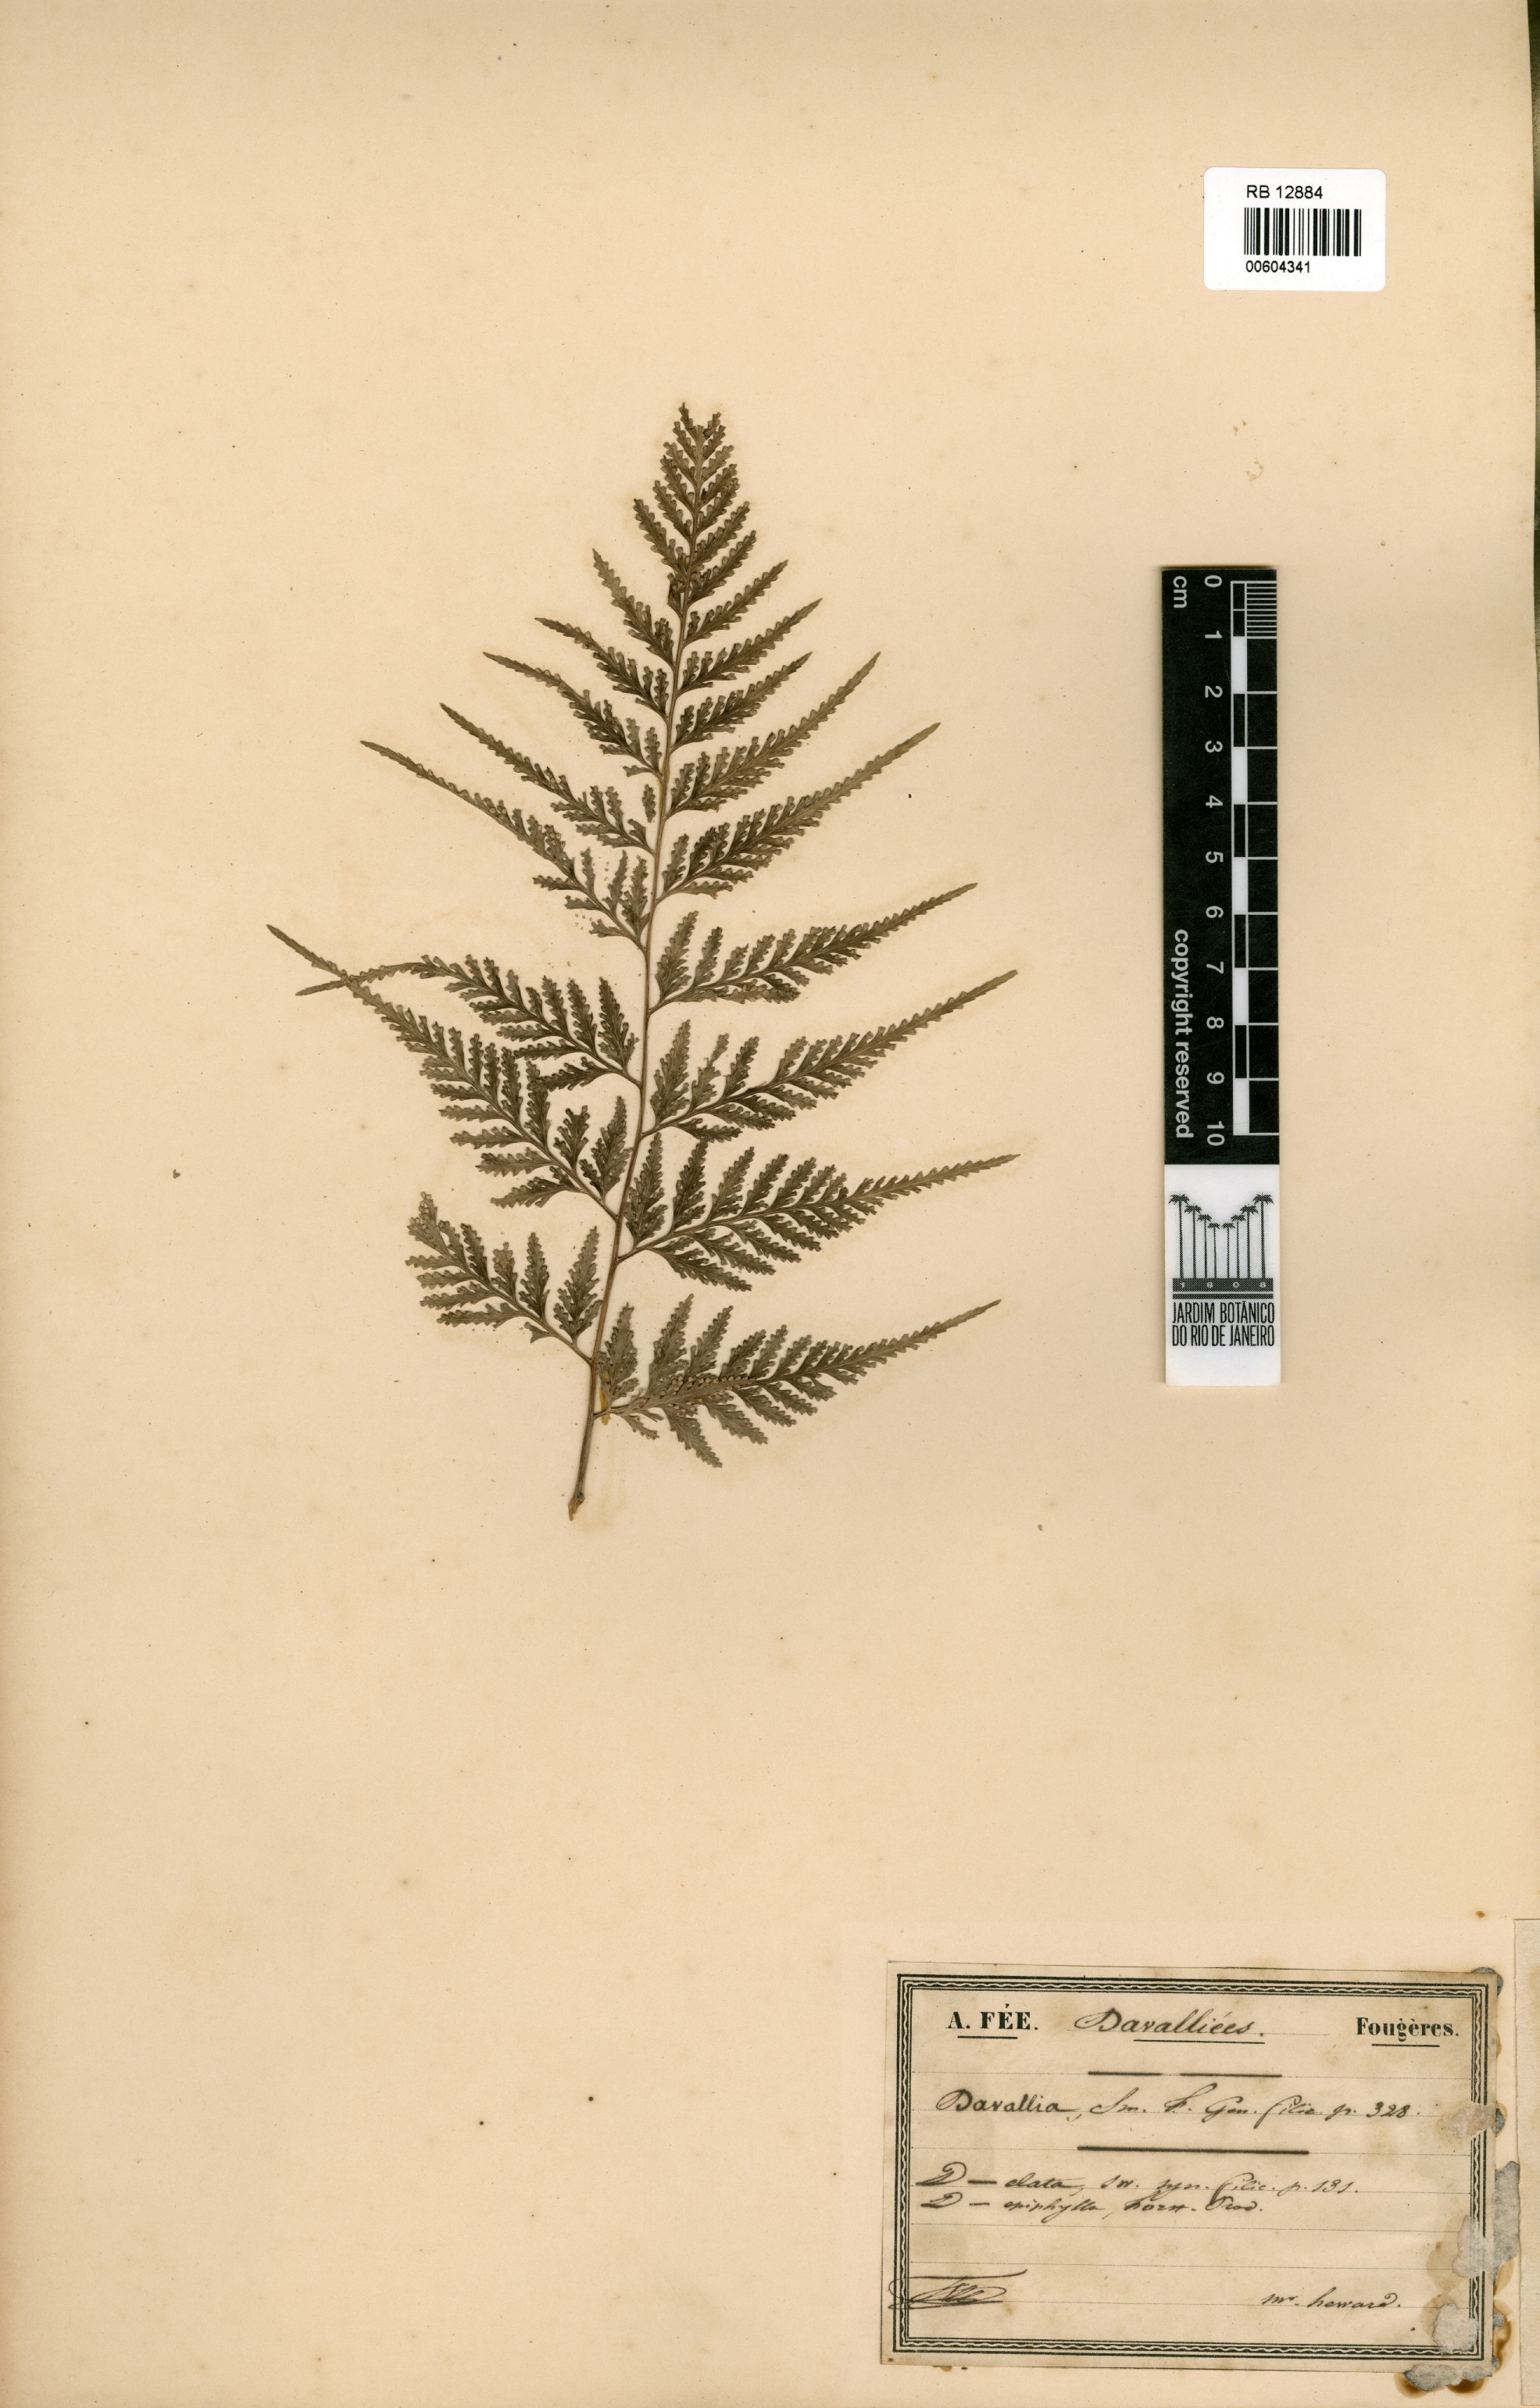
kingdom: Plantae
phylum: Tracheophyta
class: Polypodiopsida
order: Polypodiales
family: Davalliaceae
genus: Davallia
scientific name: Davallia elata
